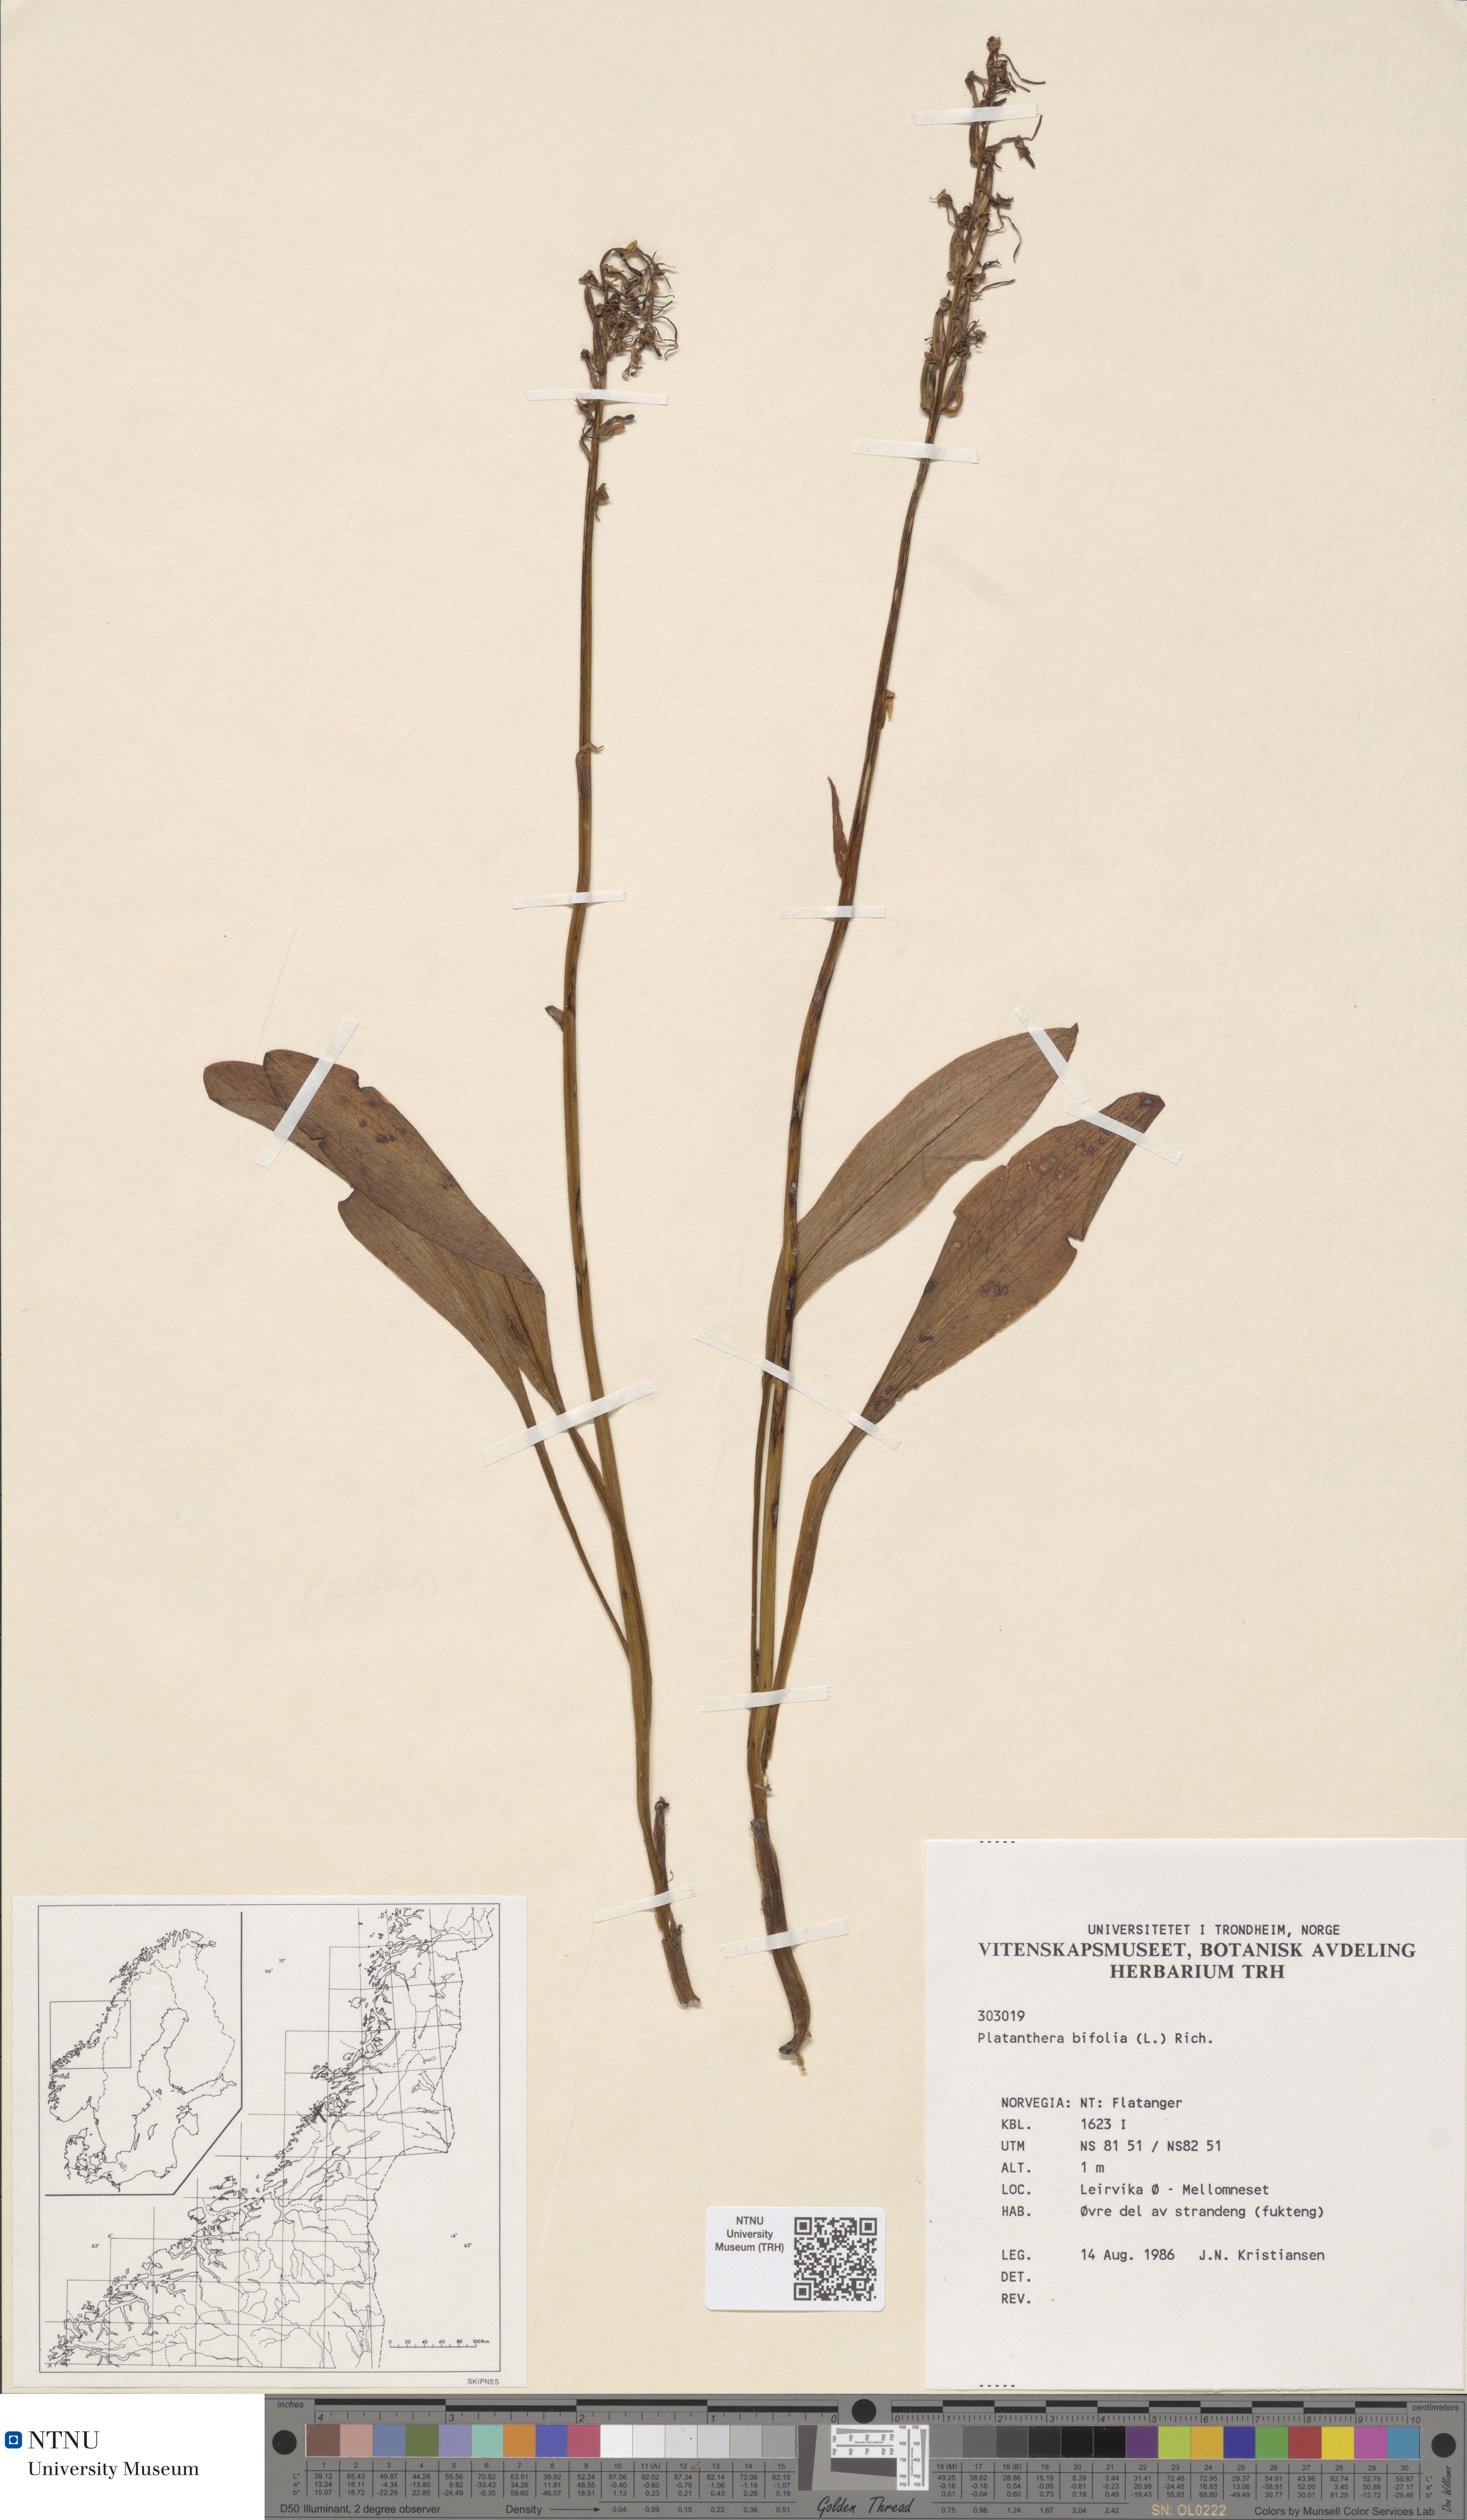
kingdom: Plantae
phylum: Tracheophyta
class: Liliopsida
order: Asparagales
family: Orchidaceae
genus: Platanthera
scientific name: Platanthera bifolia
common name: Lesser butterfly-orchid
